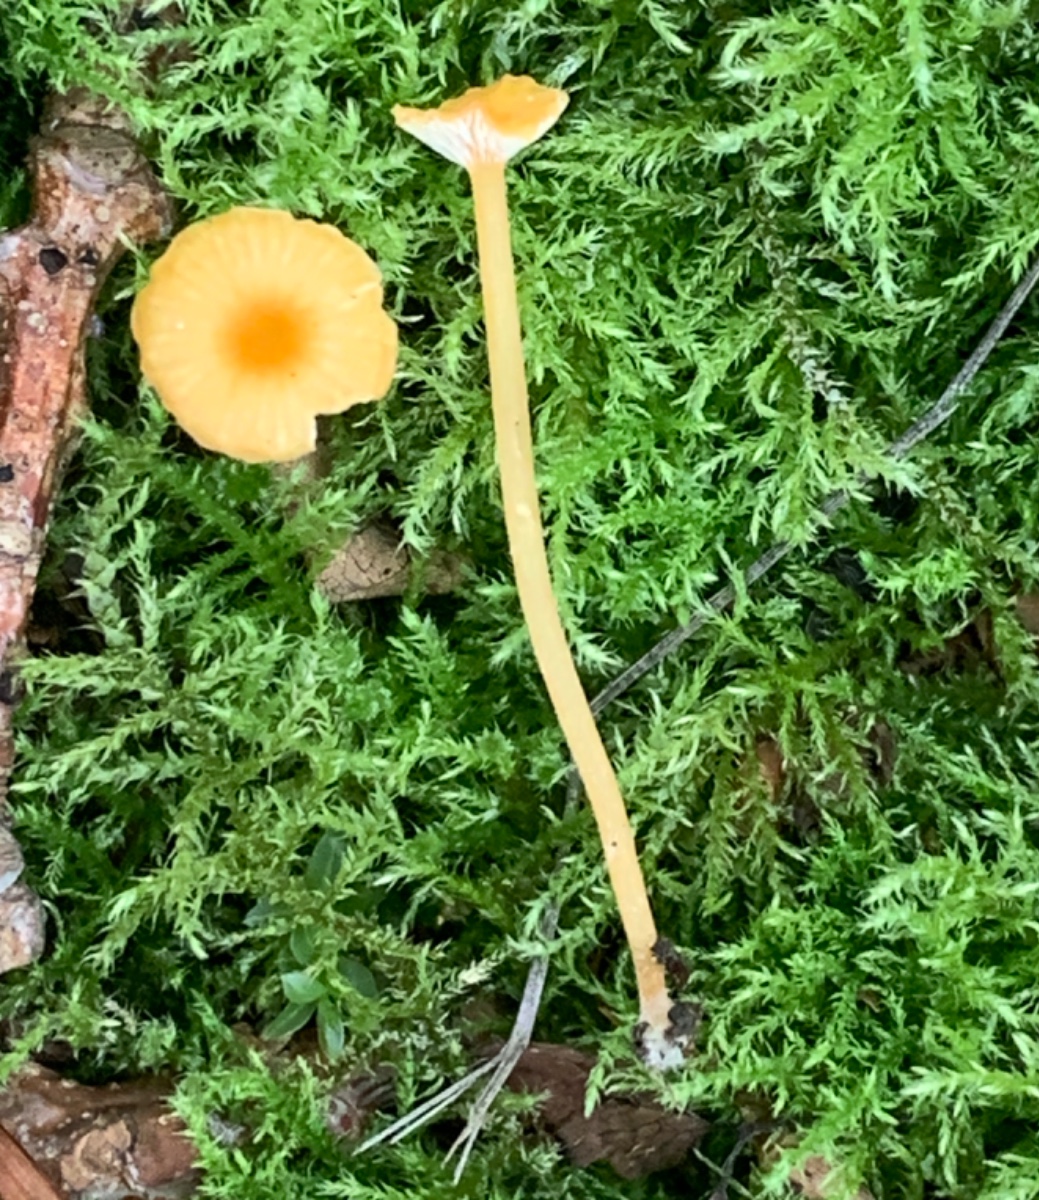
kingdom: Fungi
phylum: Basidiomycota
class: Agaricomycetes
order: Hymenochaetales
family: Rickenellaceae
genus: Rickenella
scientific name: Rickenella fibula
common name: orange mosnavlehat
